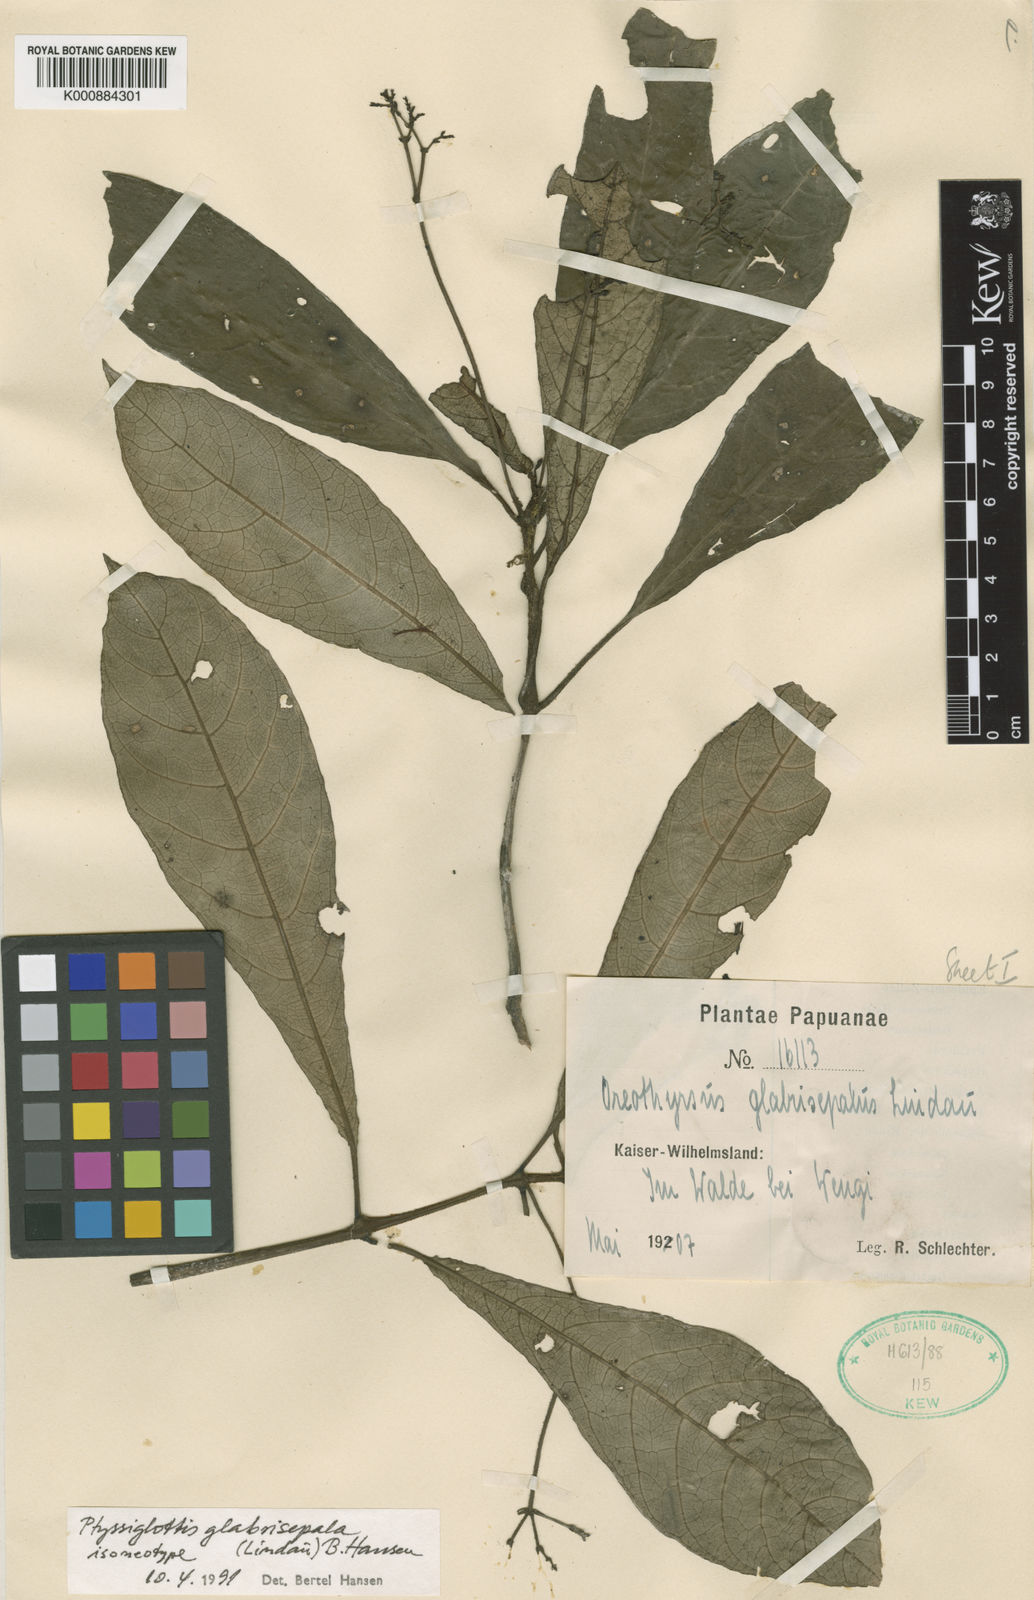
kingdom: Plantae
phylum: Tracheophyta
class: Magnoliopsida
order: Lamiales
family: Acanthaceae
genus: Ptyssiglottis
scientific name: Ptyssiglottis glabrisepala
